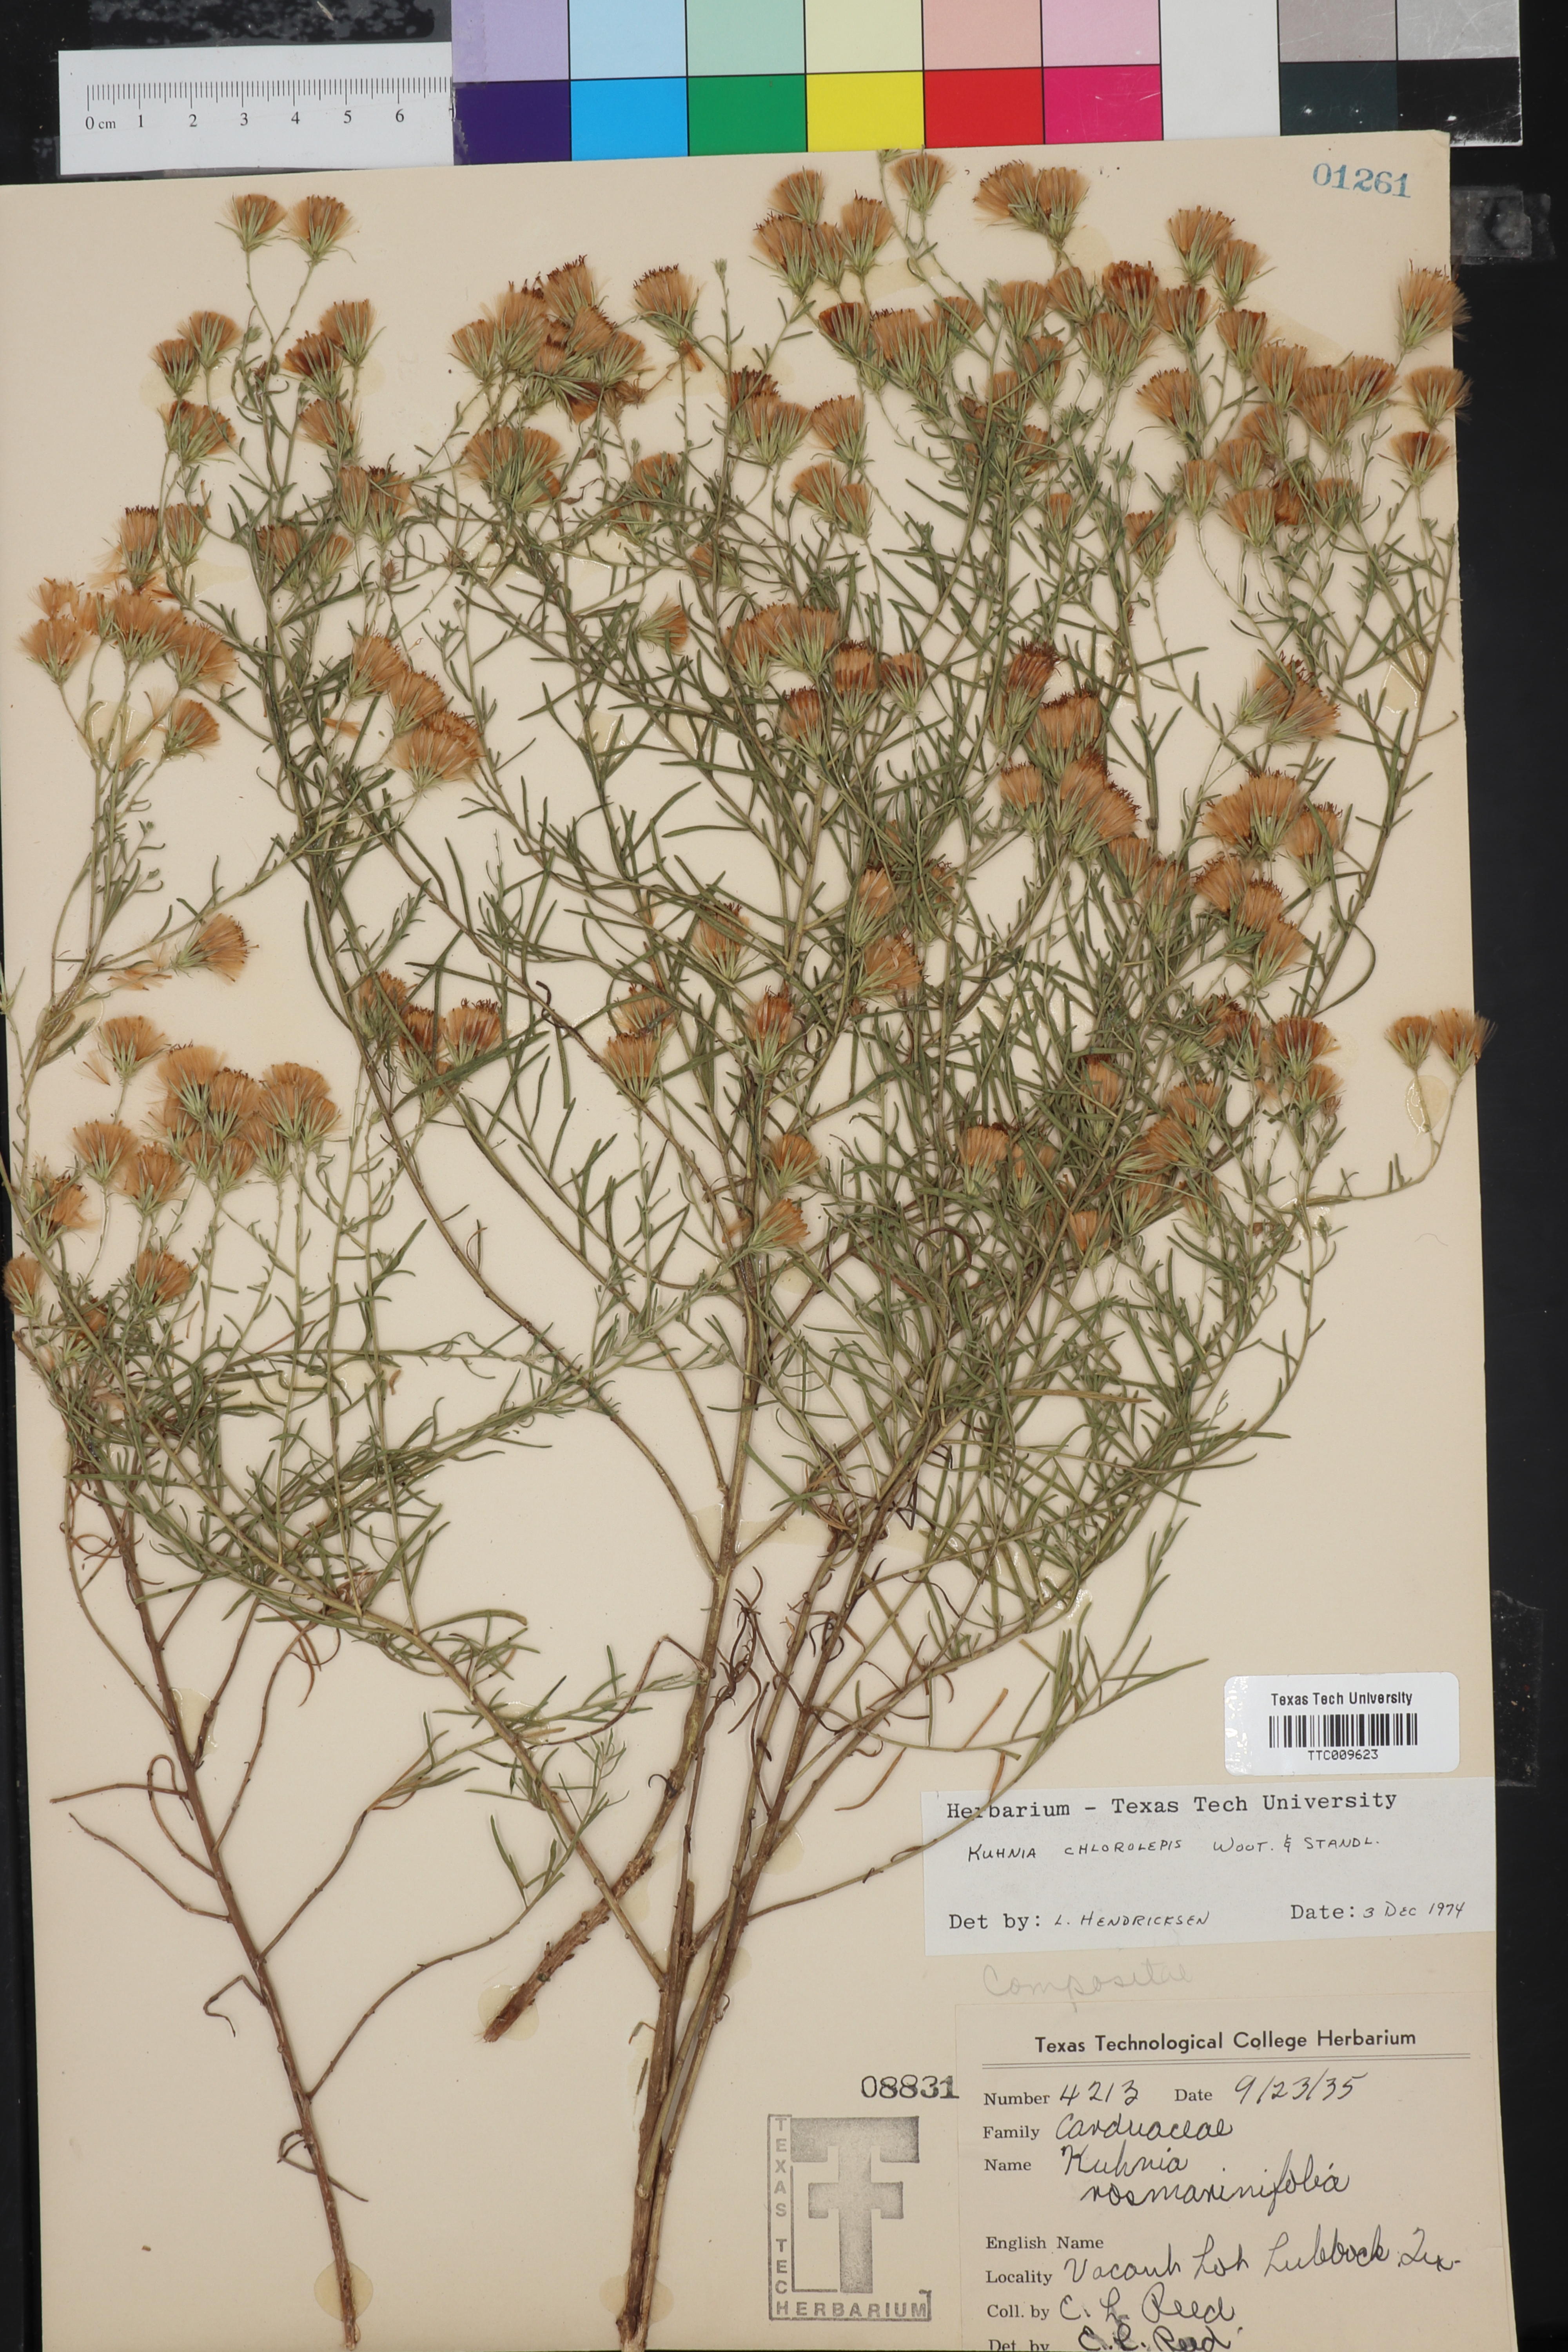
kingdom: Plantae
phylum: Tracheophyta
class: Magnoliopsida
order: Asterales
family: Asteraceae
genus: Brickellia
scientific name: Brickellia leptophylla
